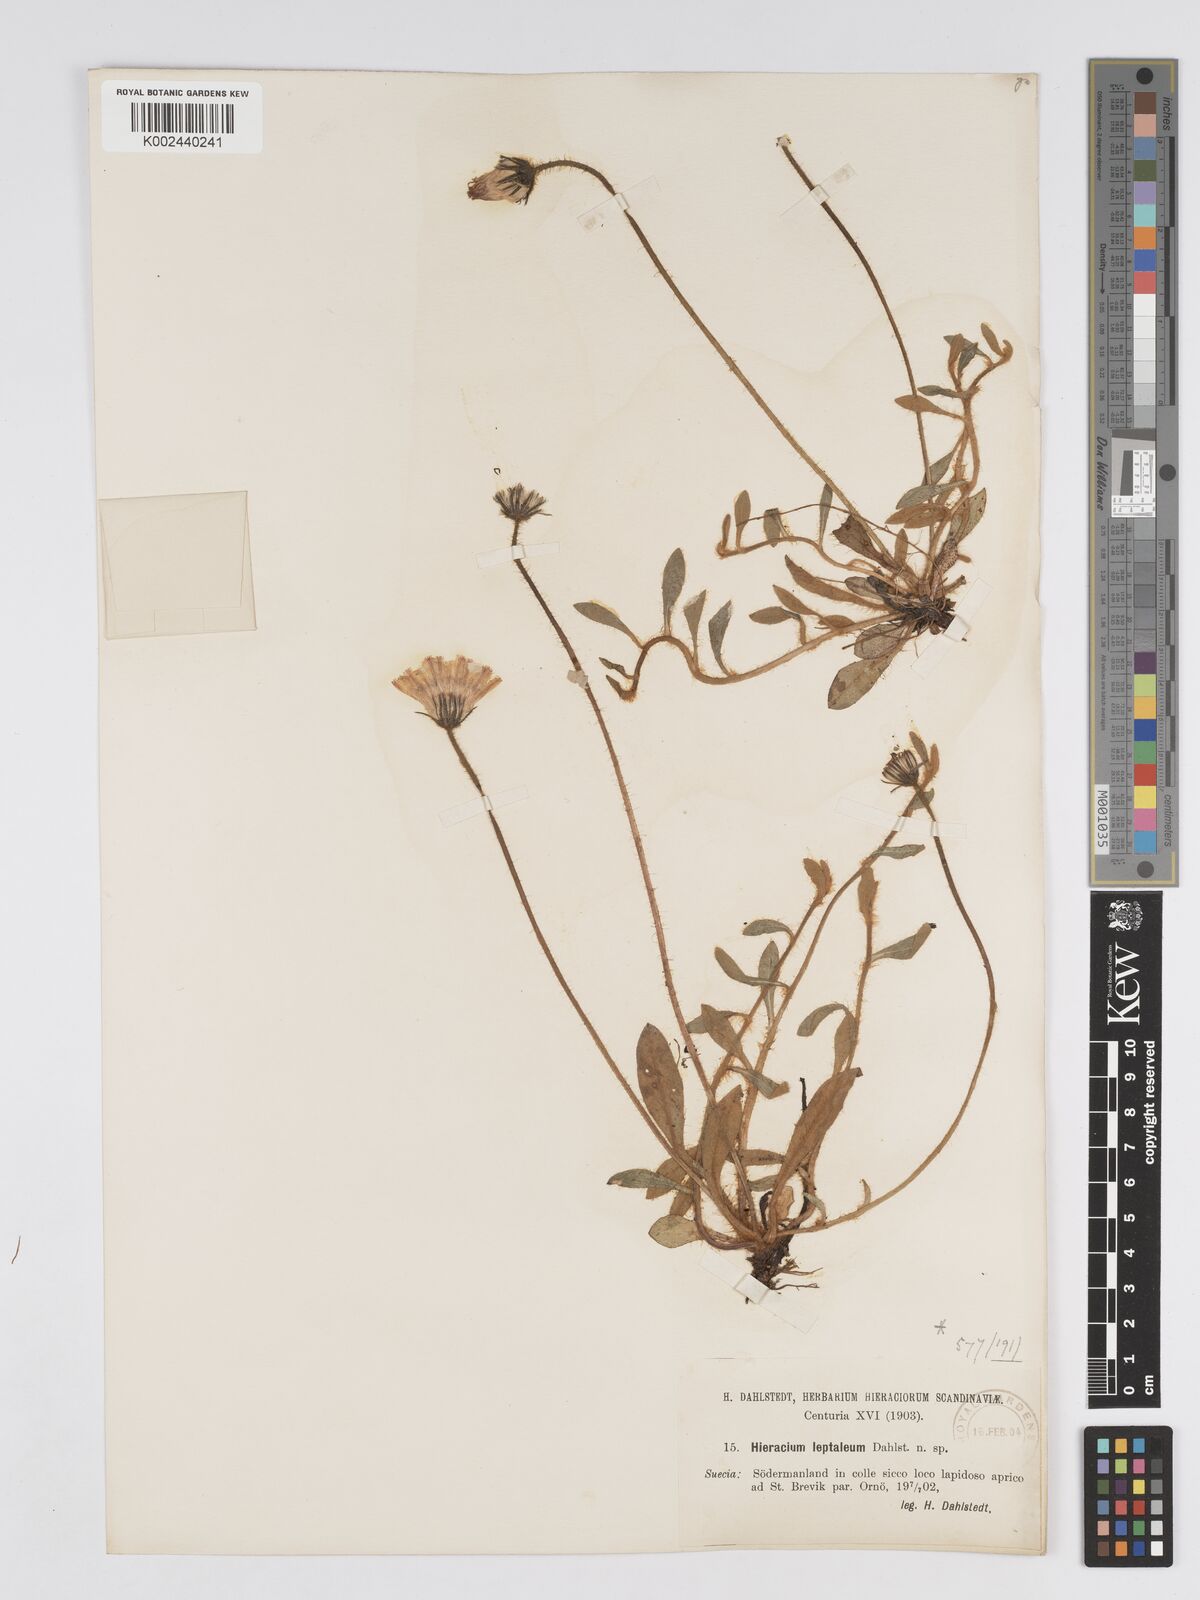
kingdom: Plantae
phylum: Tracheophyta
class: Magnoliopsida
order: Asterales
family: Asteraceae
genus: Pilosella
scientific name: Pilosella officinarum
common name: Mouse-ear hawkweed
